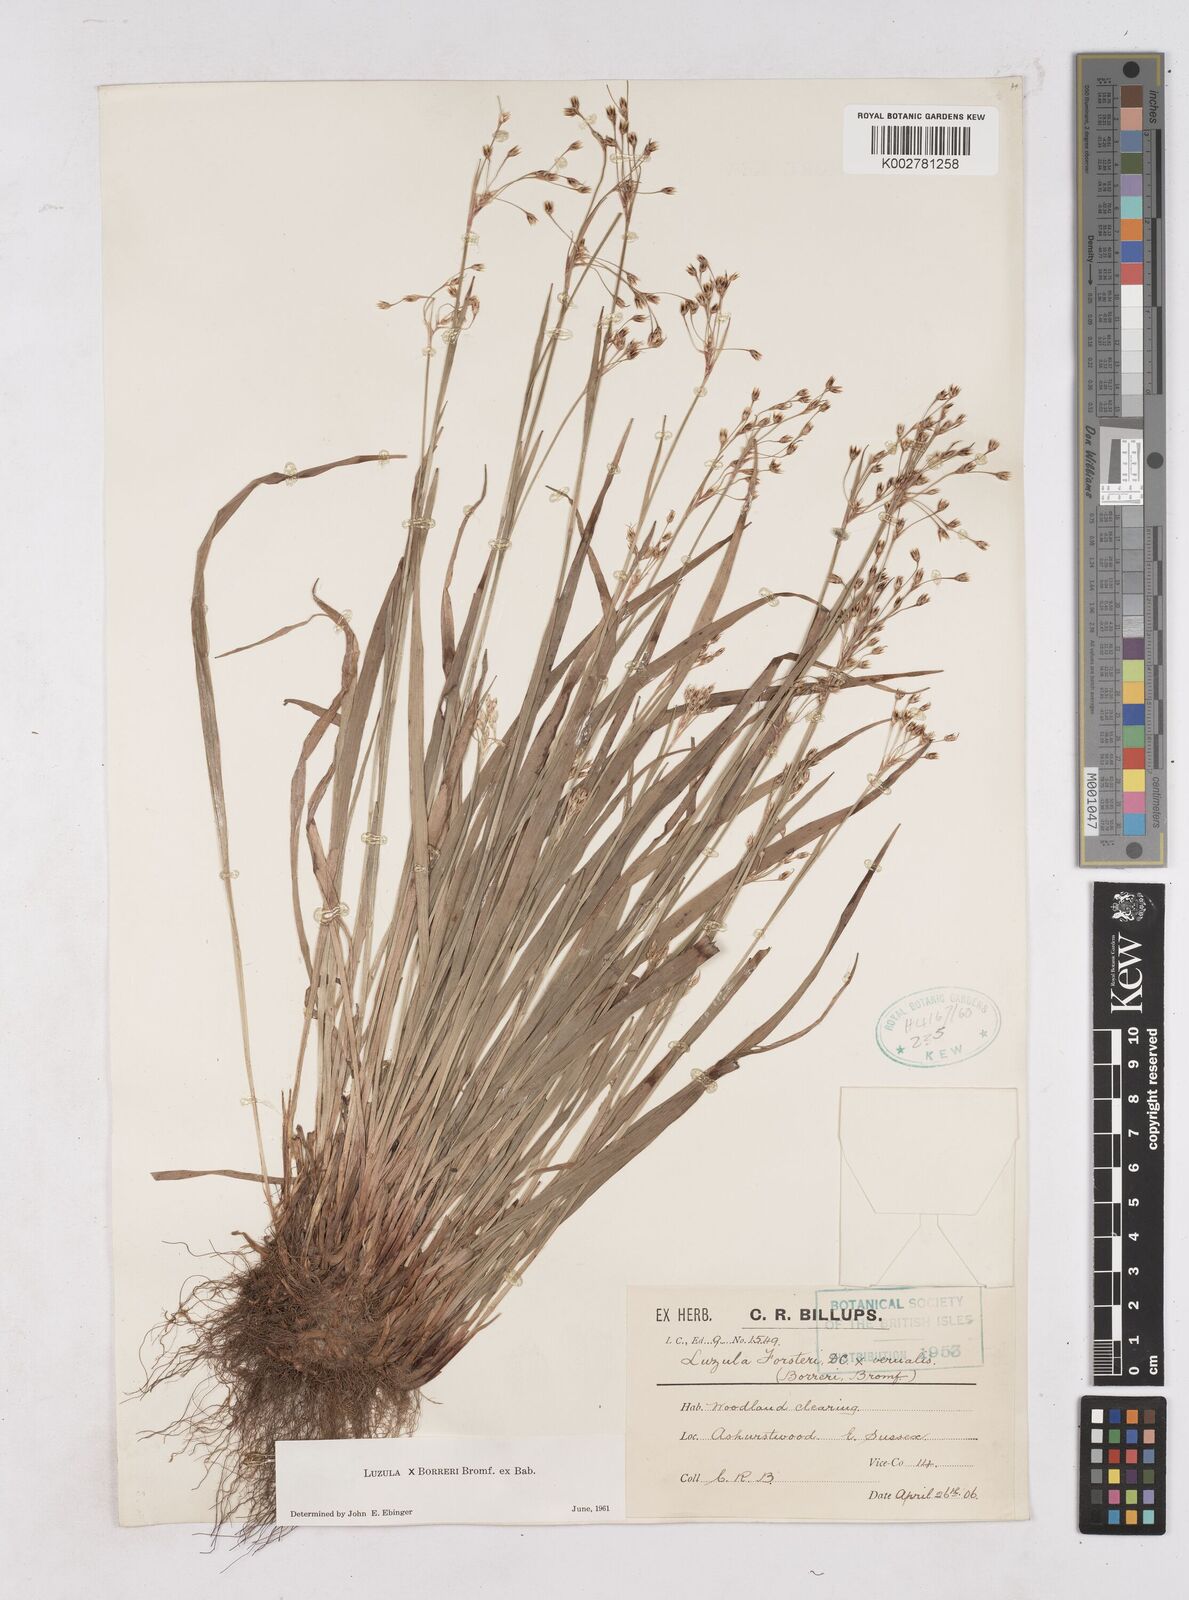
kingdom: Plantae
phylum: Tracheophyta
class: Liliopsida
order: Poales
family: Juncaceae
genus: Luzula
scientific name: Luzula forsteri
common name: Southern wood-rush
